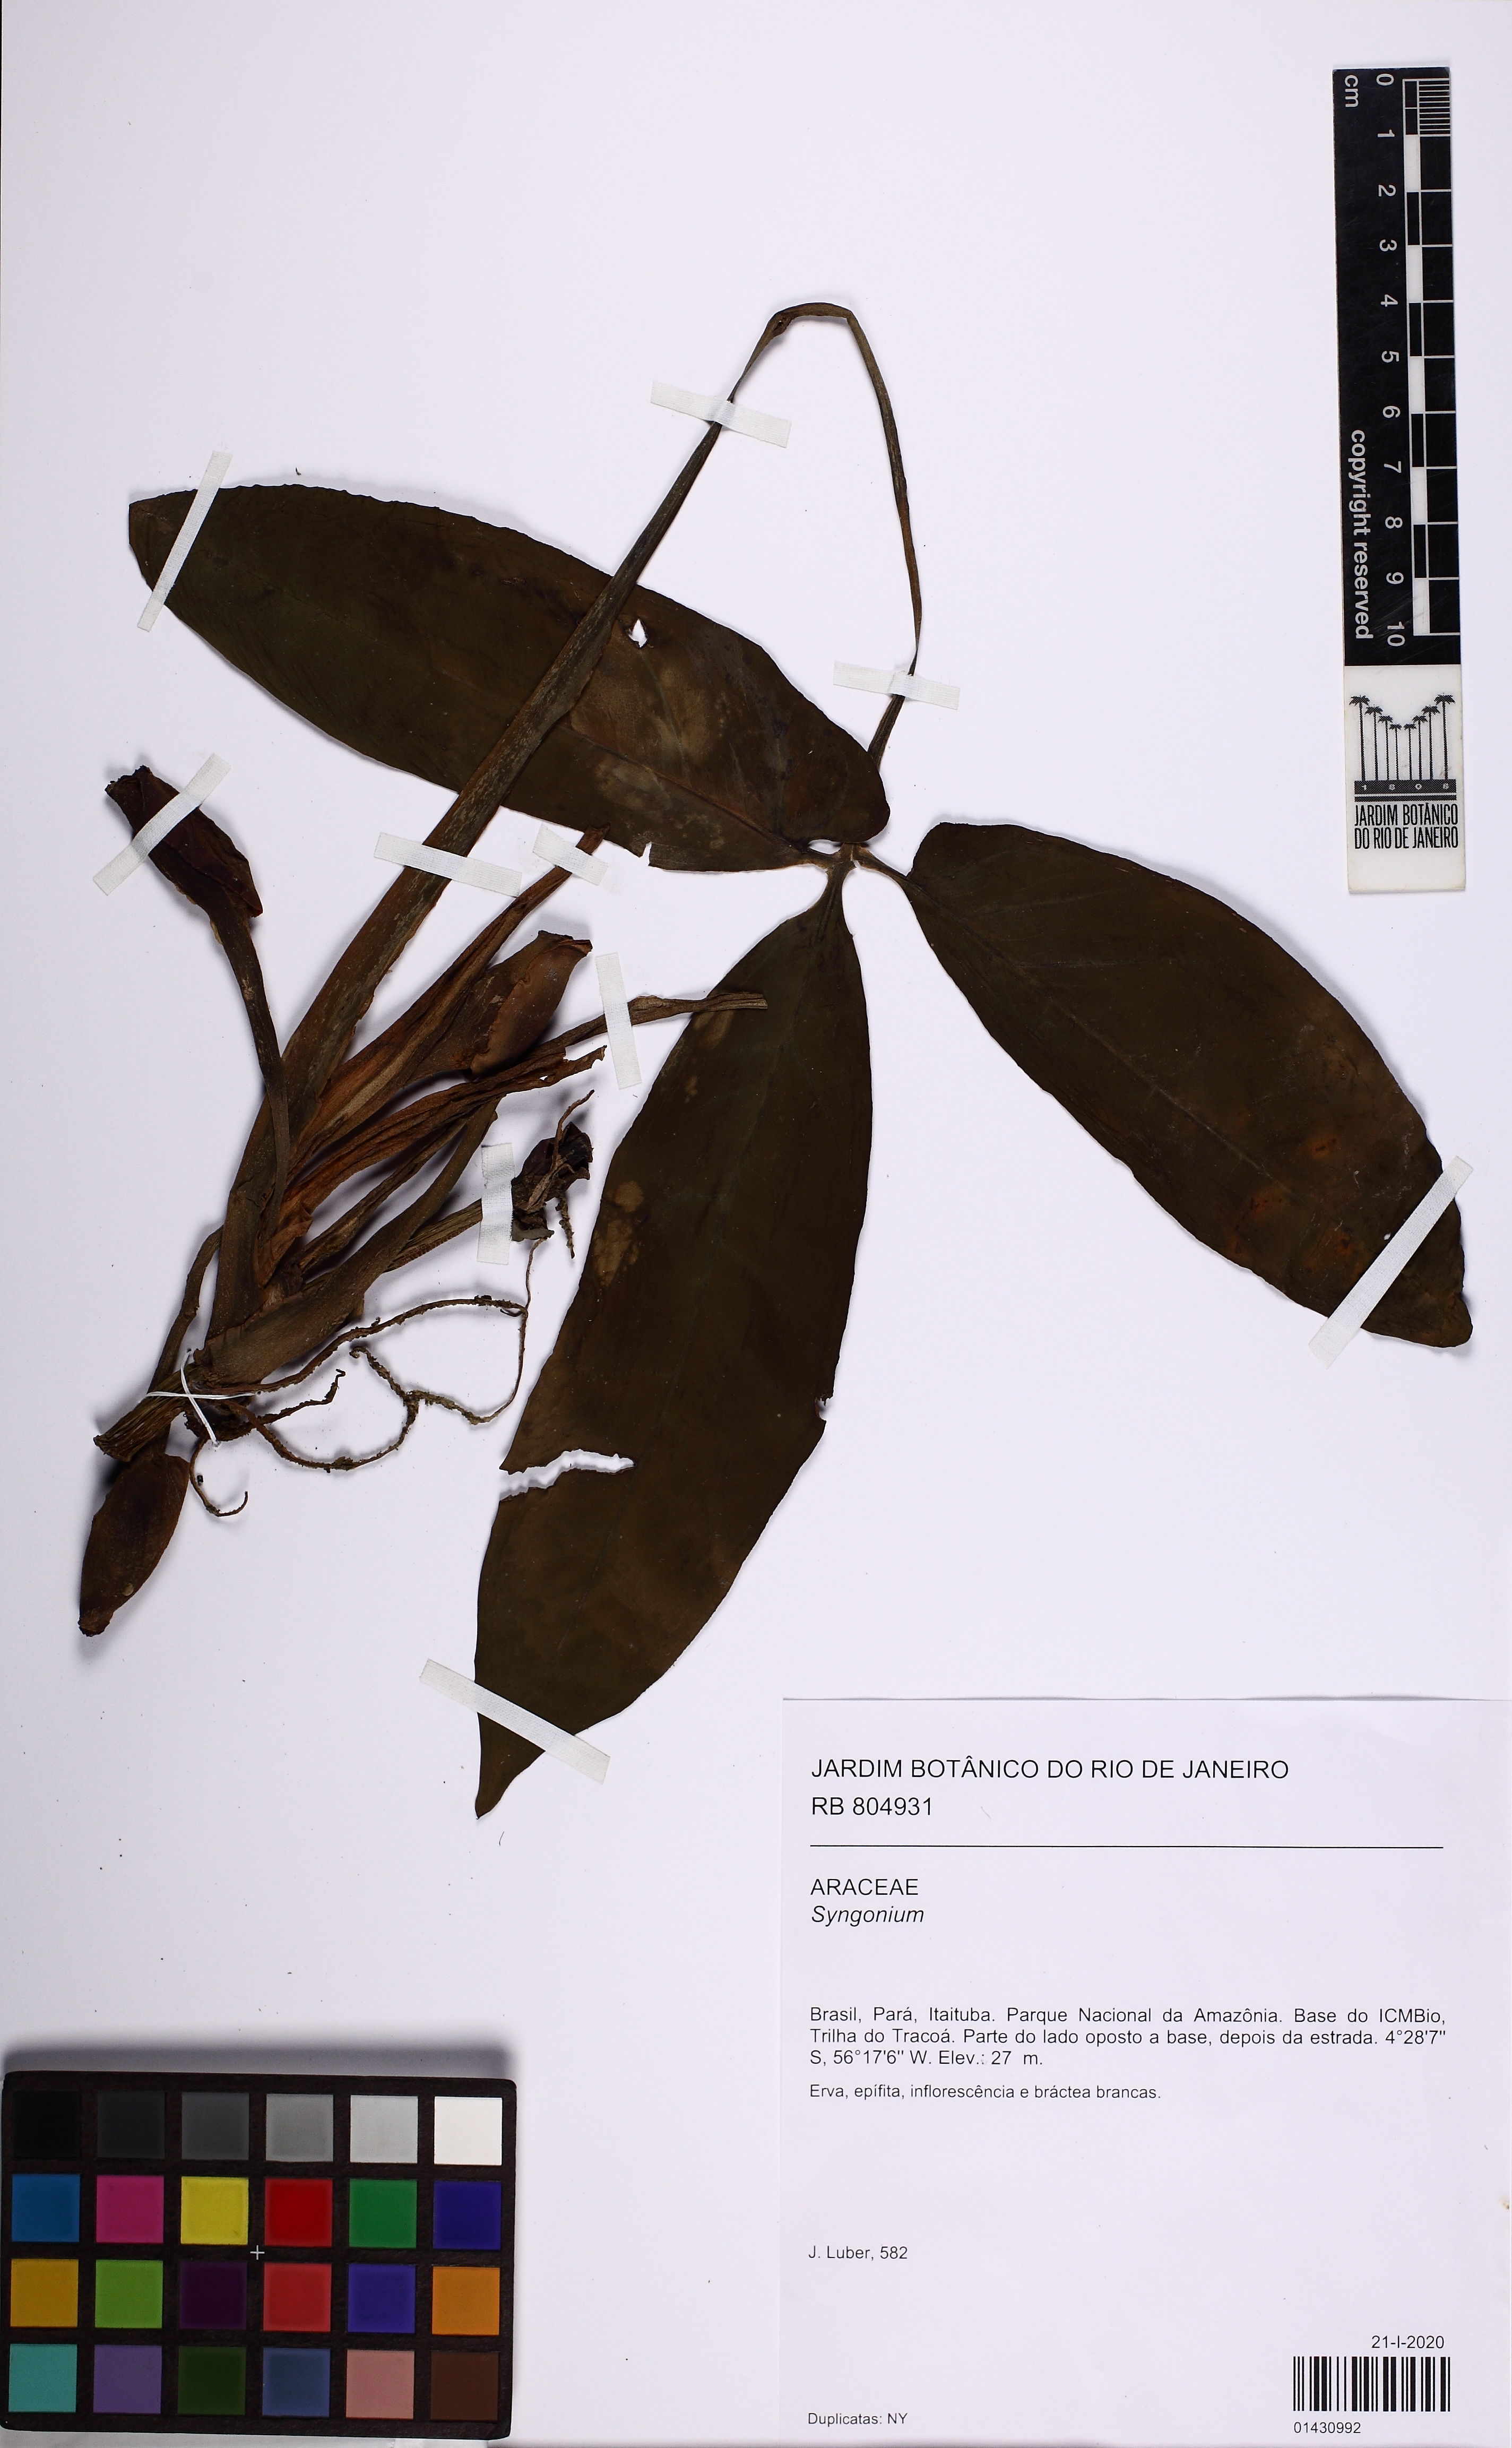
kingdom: Plantae
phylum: Tracheophyta
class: Liliopsida
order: Alismatales
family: Araceae
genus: Syngonium
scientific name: Syngonium
